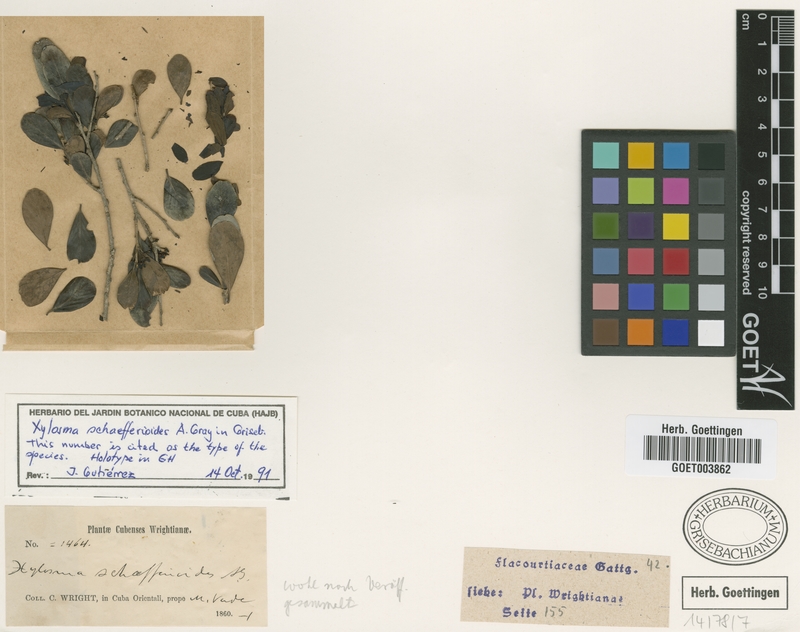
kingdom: Plantae
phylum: Tracheophyta
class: Magnoliopsida
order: Malpighiales
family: Salicaceae
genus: Xylosma
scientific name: Xylosma schaefferioides
